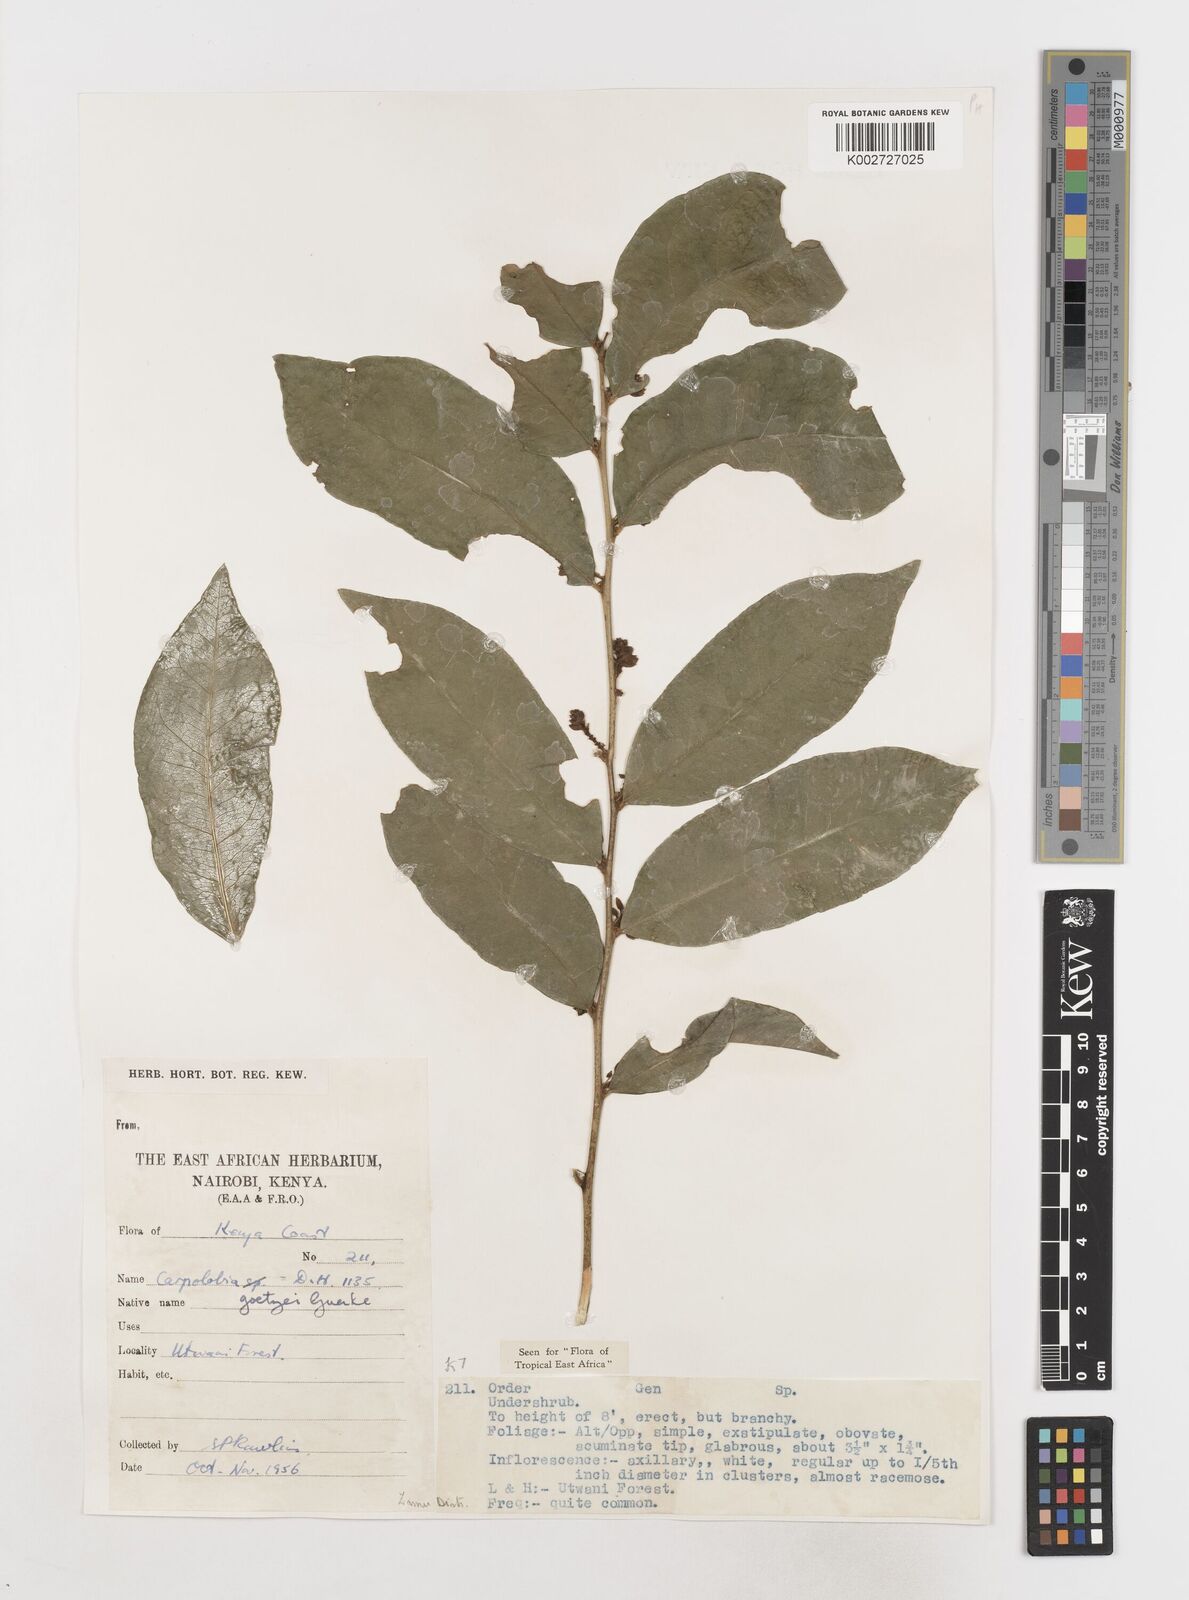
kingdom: Plantae
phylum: Tracheophyta
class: Magnoliopsida
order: Fabales
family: Polygalaceae
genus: Carpolobia
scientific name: Carpolobia goetzei
